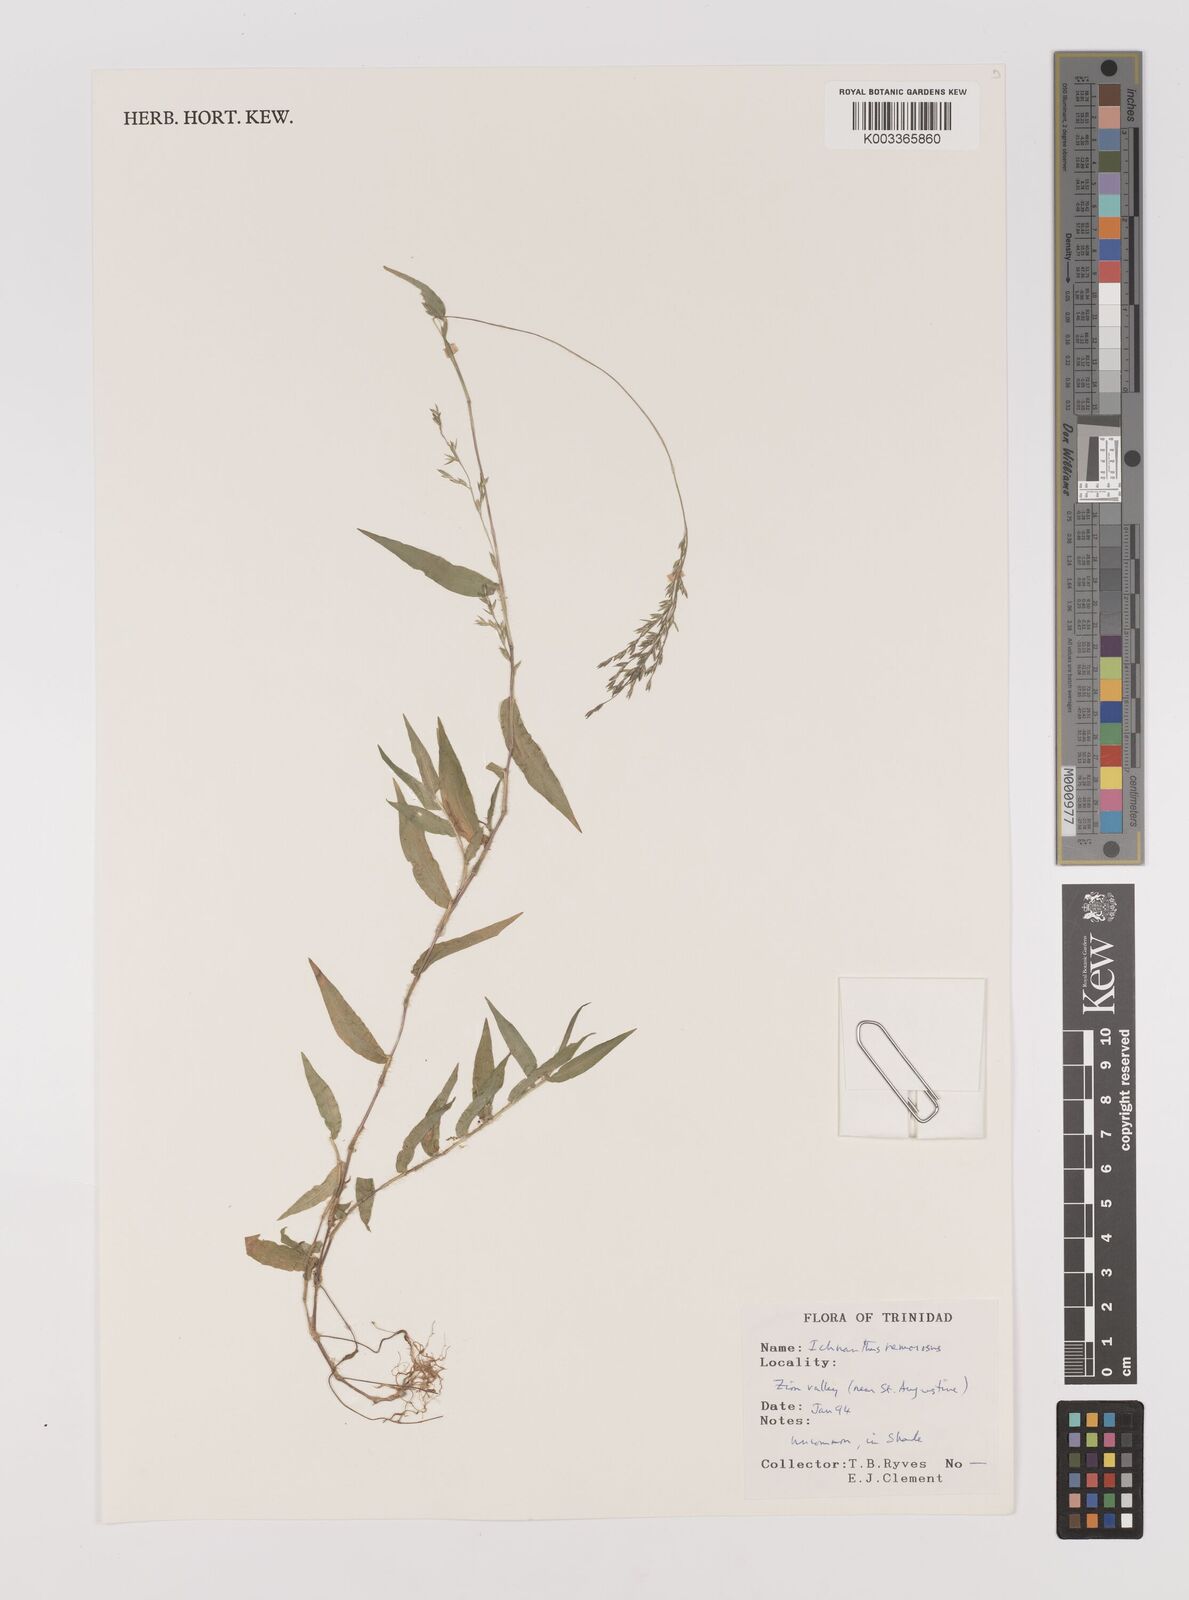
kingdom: Plantae
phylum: Tracheophyta
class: Liliopsida
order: Poales
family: Poaceae
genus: Ichnanthus
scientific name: Ichnanthus nemorosus
